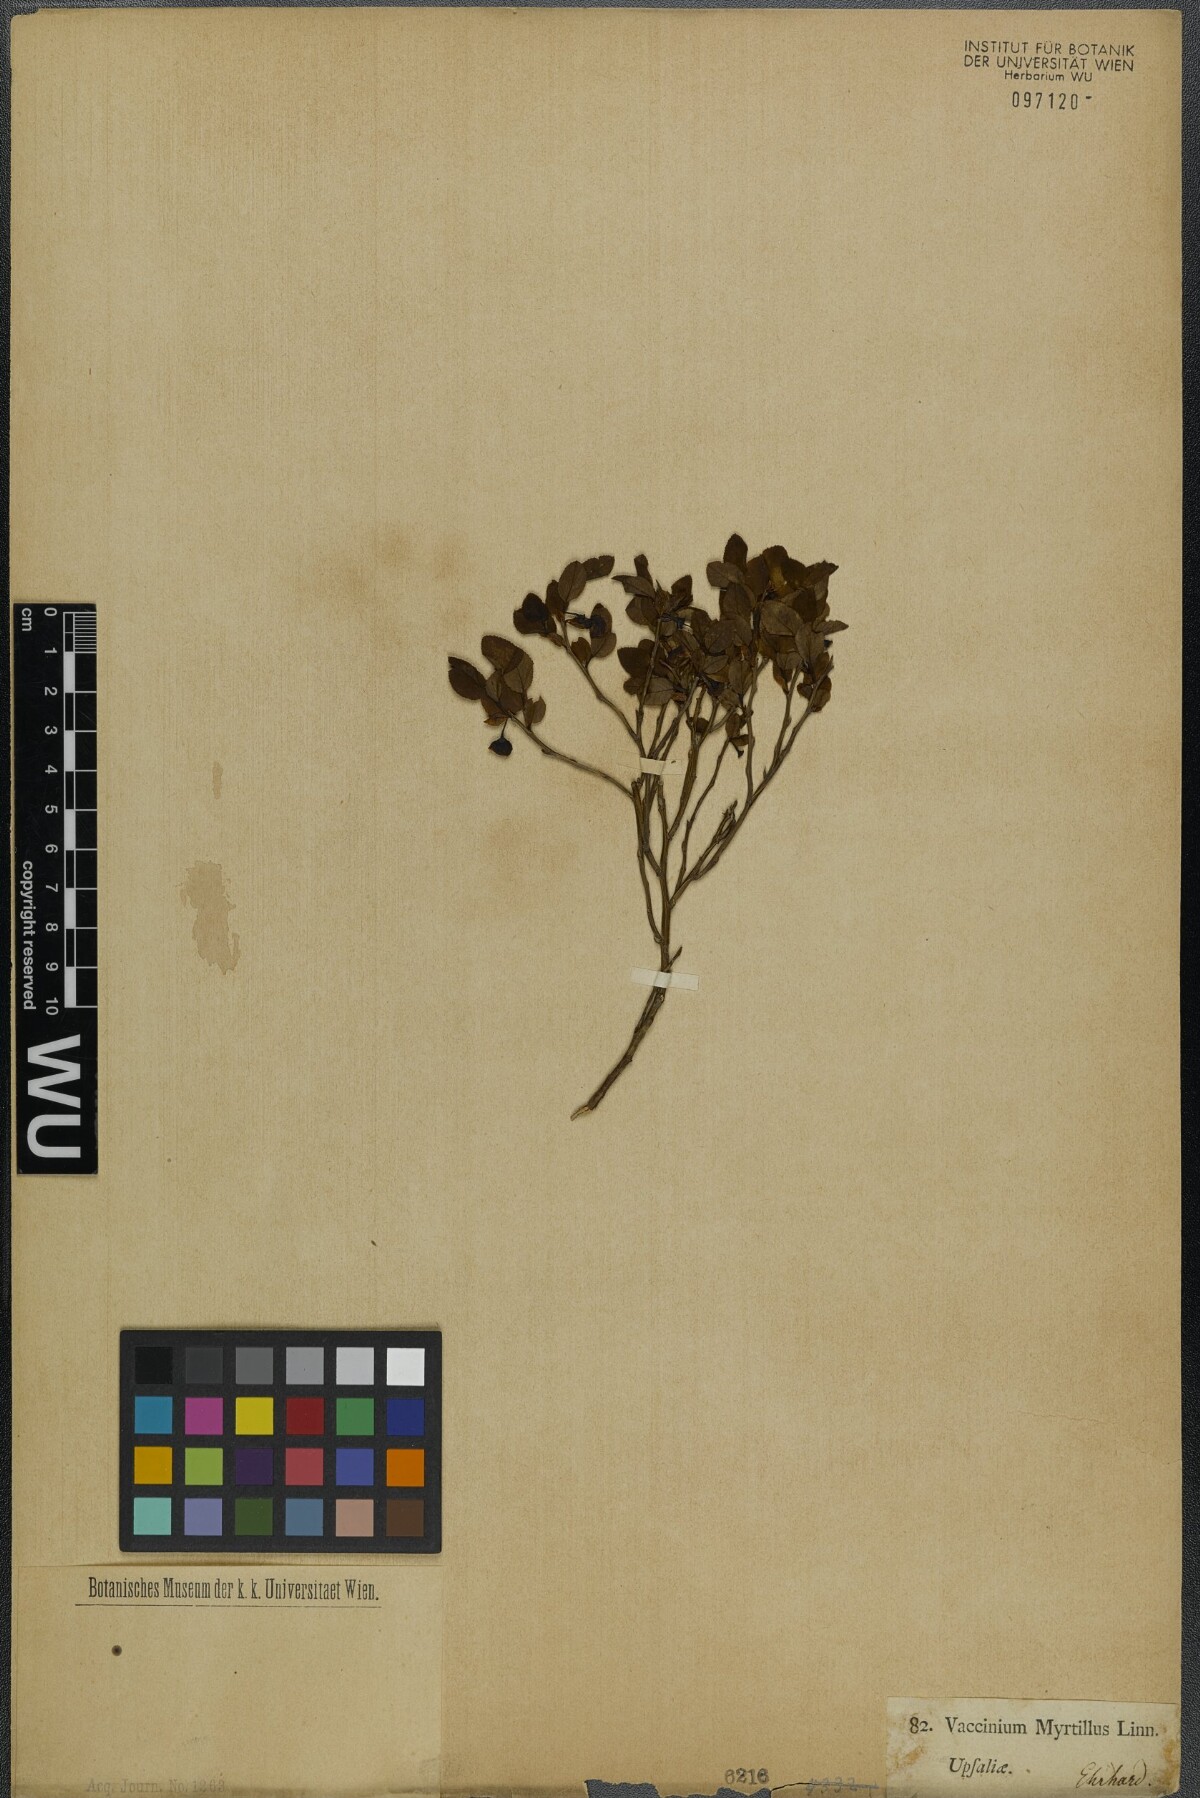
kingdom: Plantae
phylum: Tracheophyta
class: Magnoliopsida
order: Ericales
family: Ericaceae
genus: Vaccinium
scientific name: Vaccinium myrtillus
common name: Bilberry
